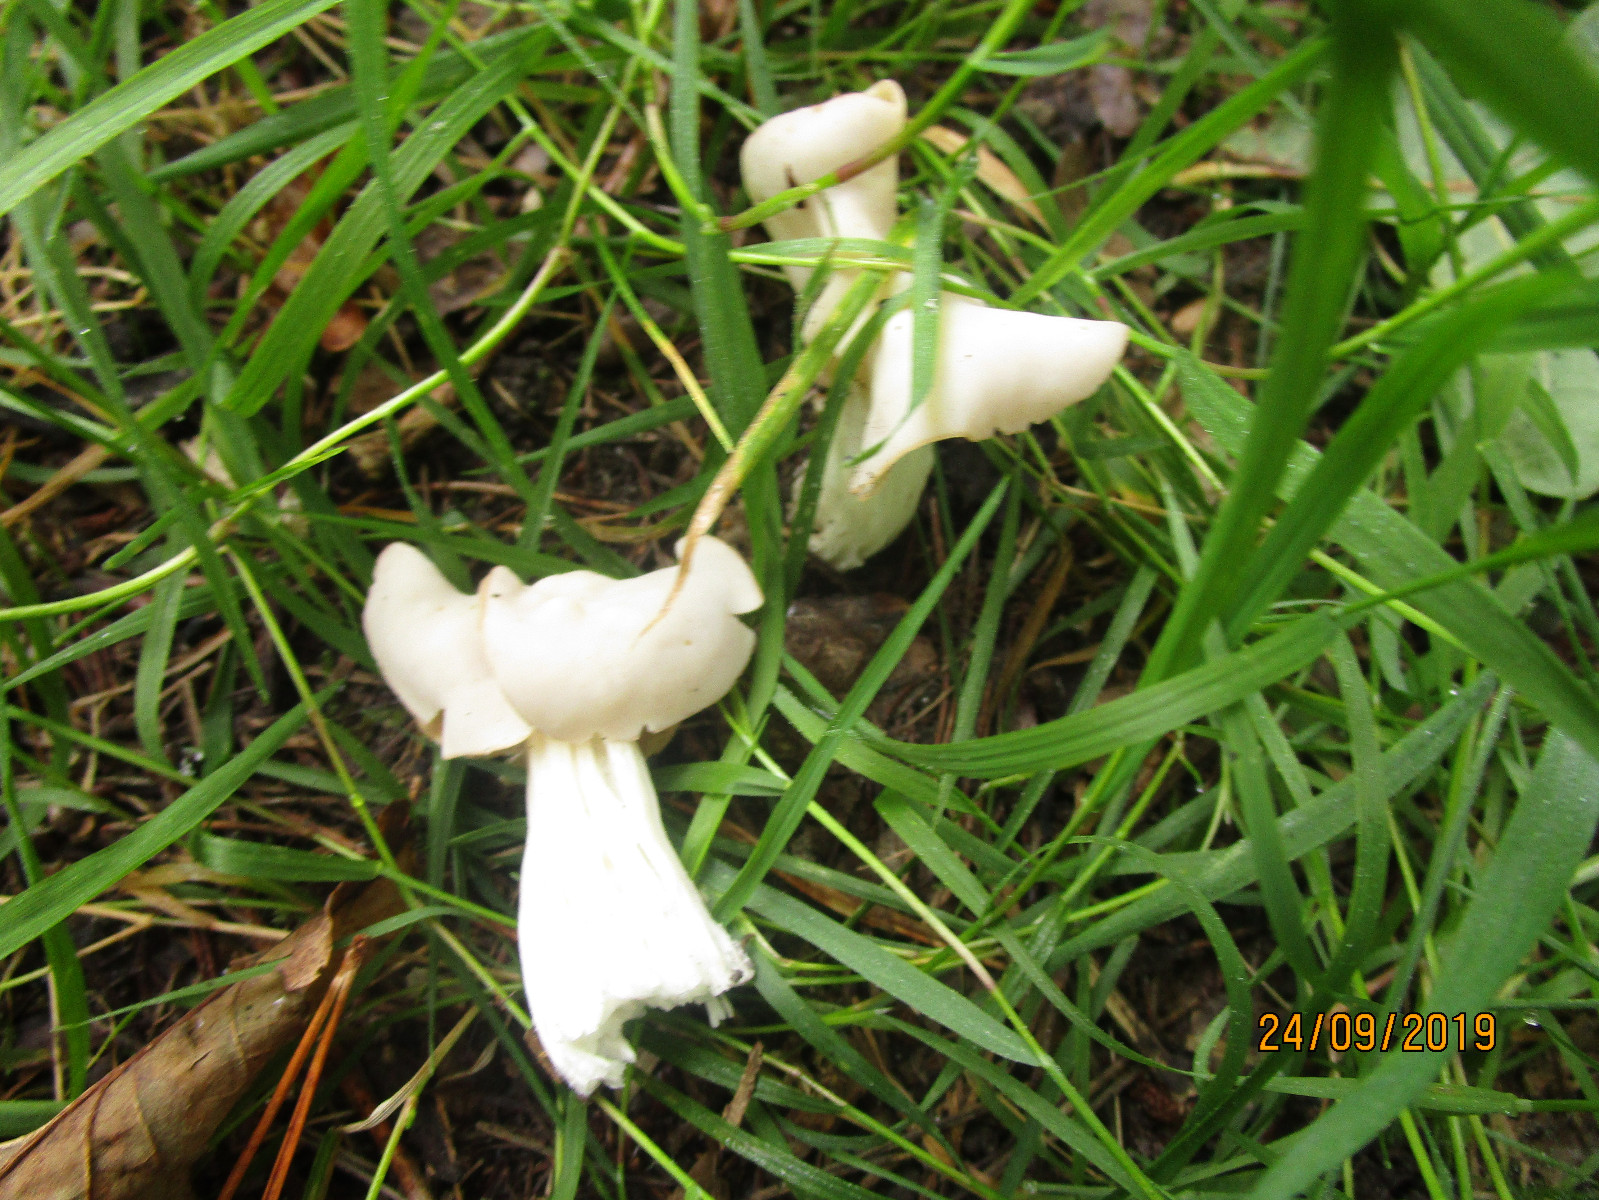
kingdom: Fungi
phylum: Ascomycota
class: Pezizomycetes
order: Pezizales
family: Helvellaceae
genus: Helvella
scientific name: Helvella crispa
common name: kruset foldhat
